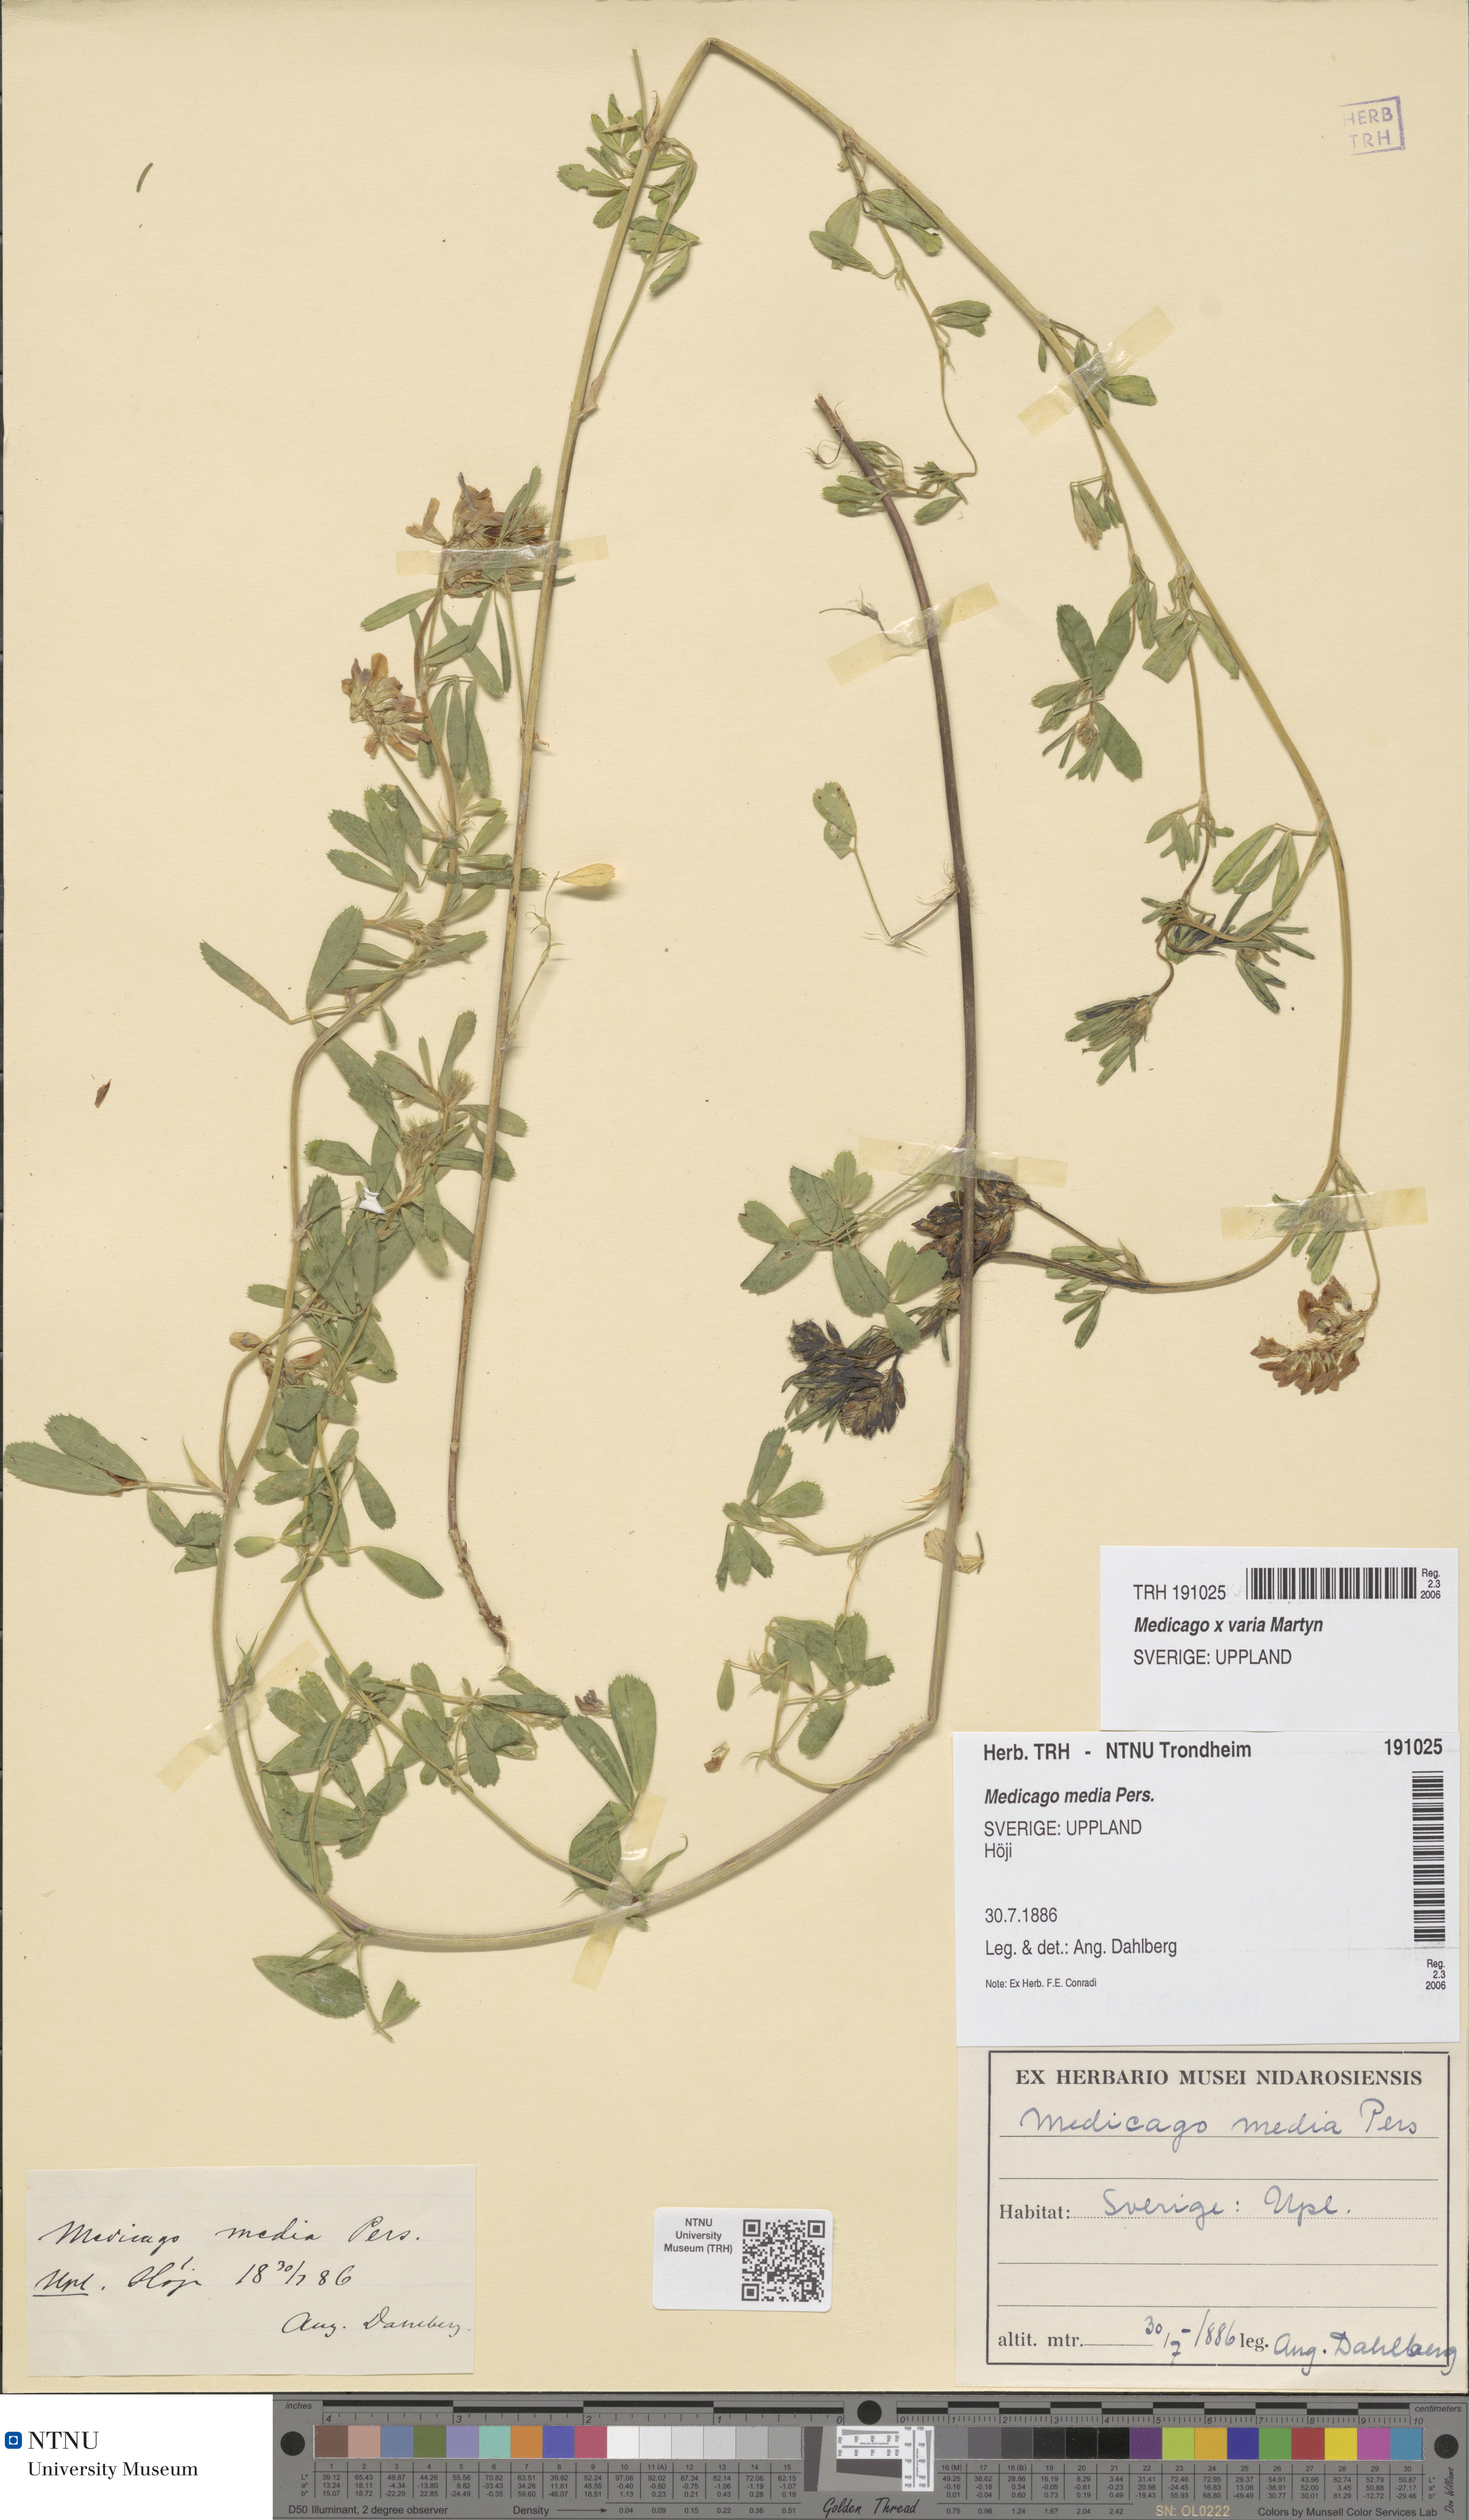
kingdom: Plantae
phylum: Tracheophyta
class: Magnoliopsida
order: Fabales
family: Fabaceae
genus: Medicago
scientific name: Medicago varia
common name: Sand lucerne
